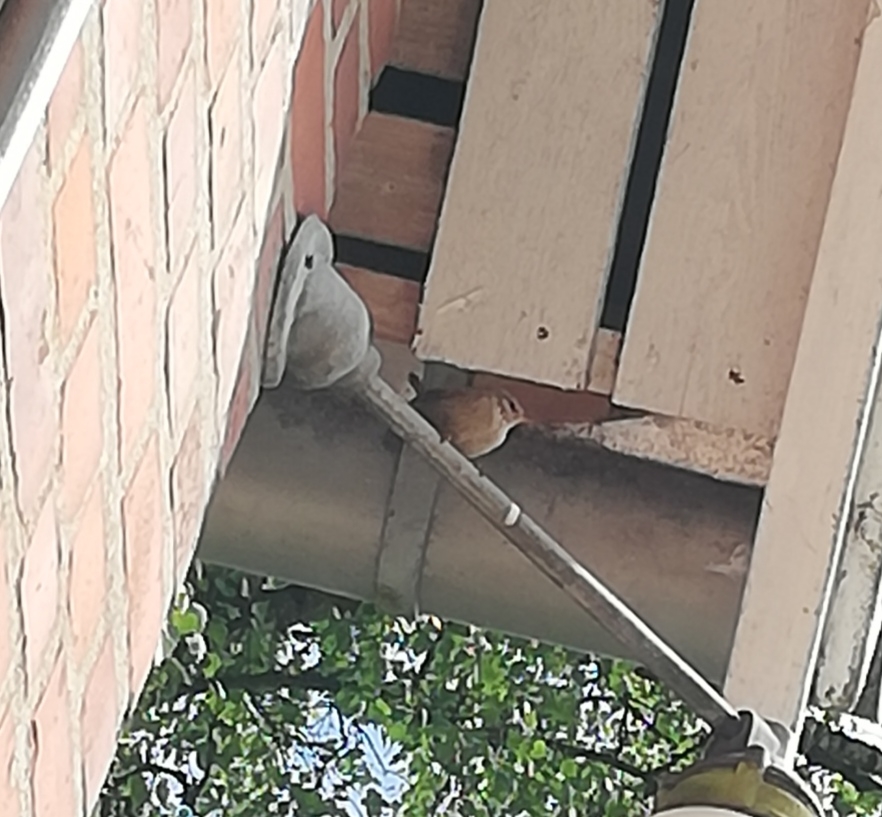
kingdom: Animalia
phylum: Chordata
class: Aves
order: Passeriformes
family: Troglodytidae
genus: Troglodytes
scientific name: Troglodytes troglodytes
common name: Gærdesmutte
